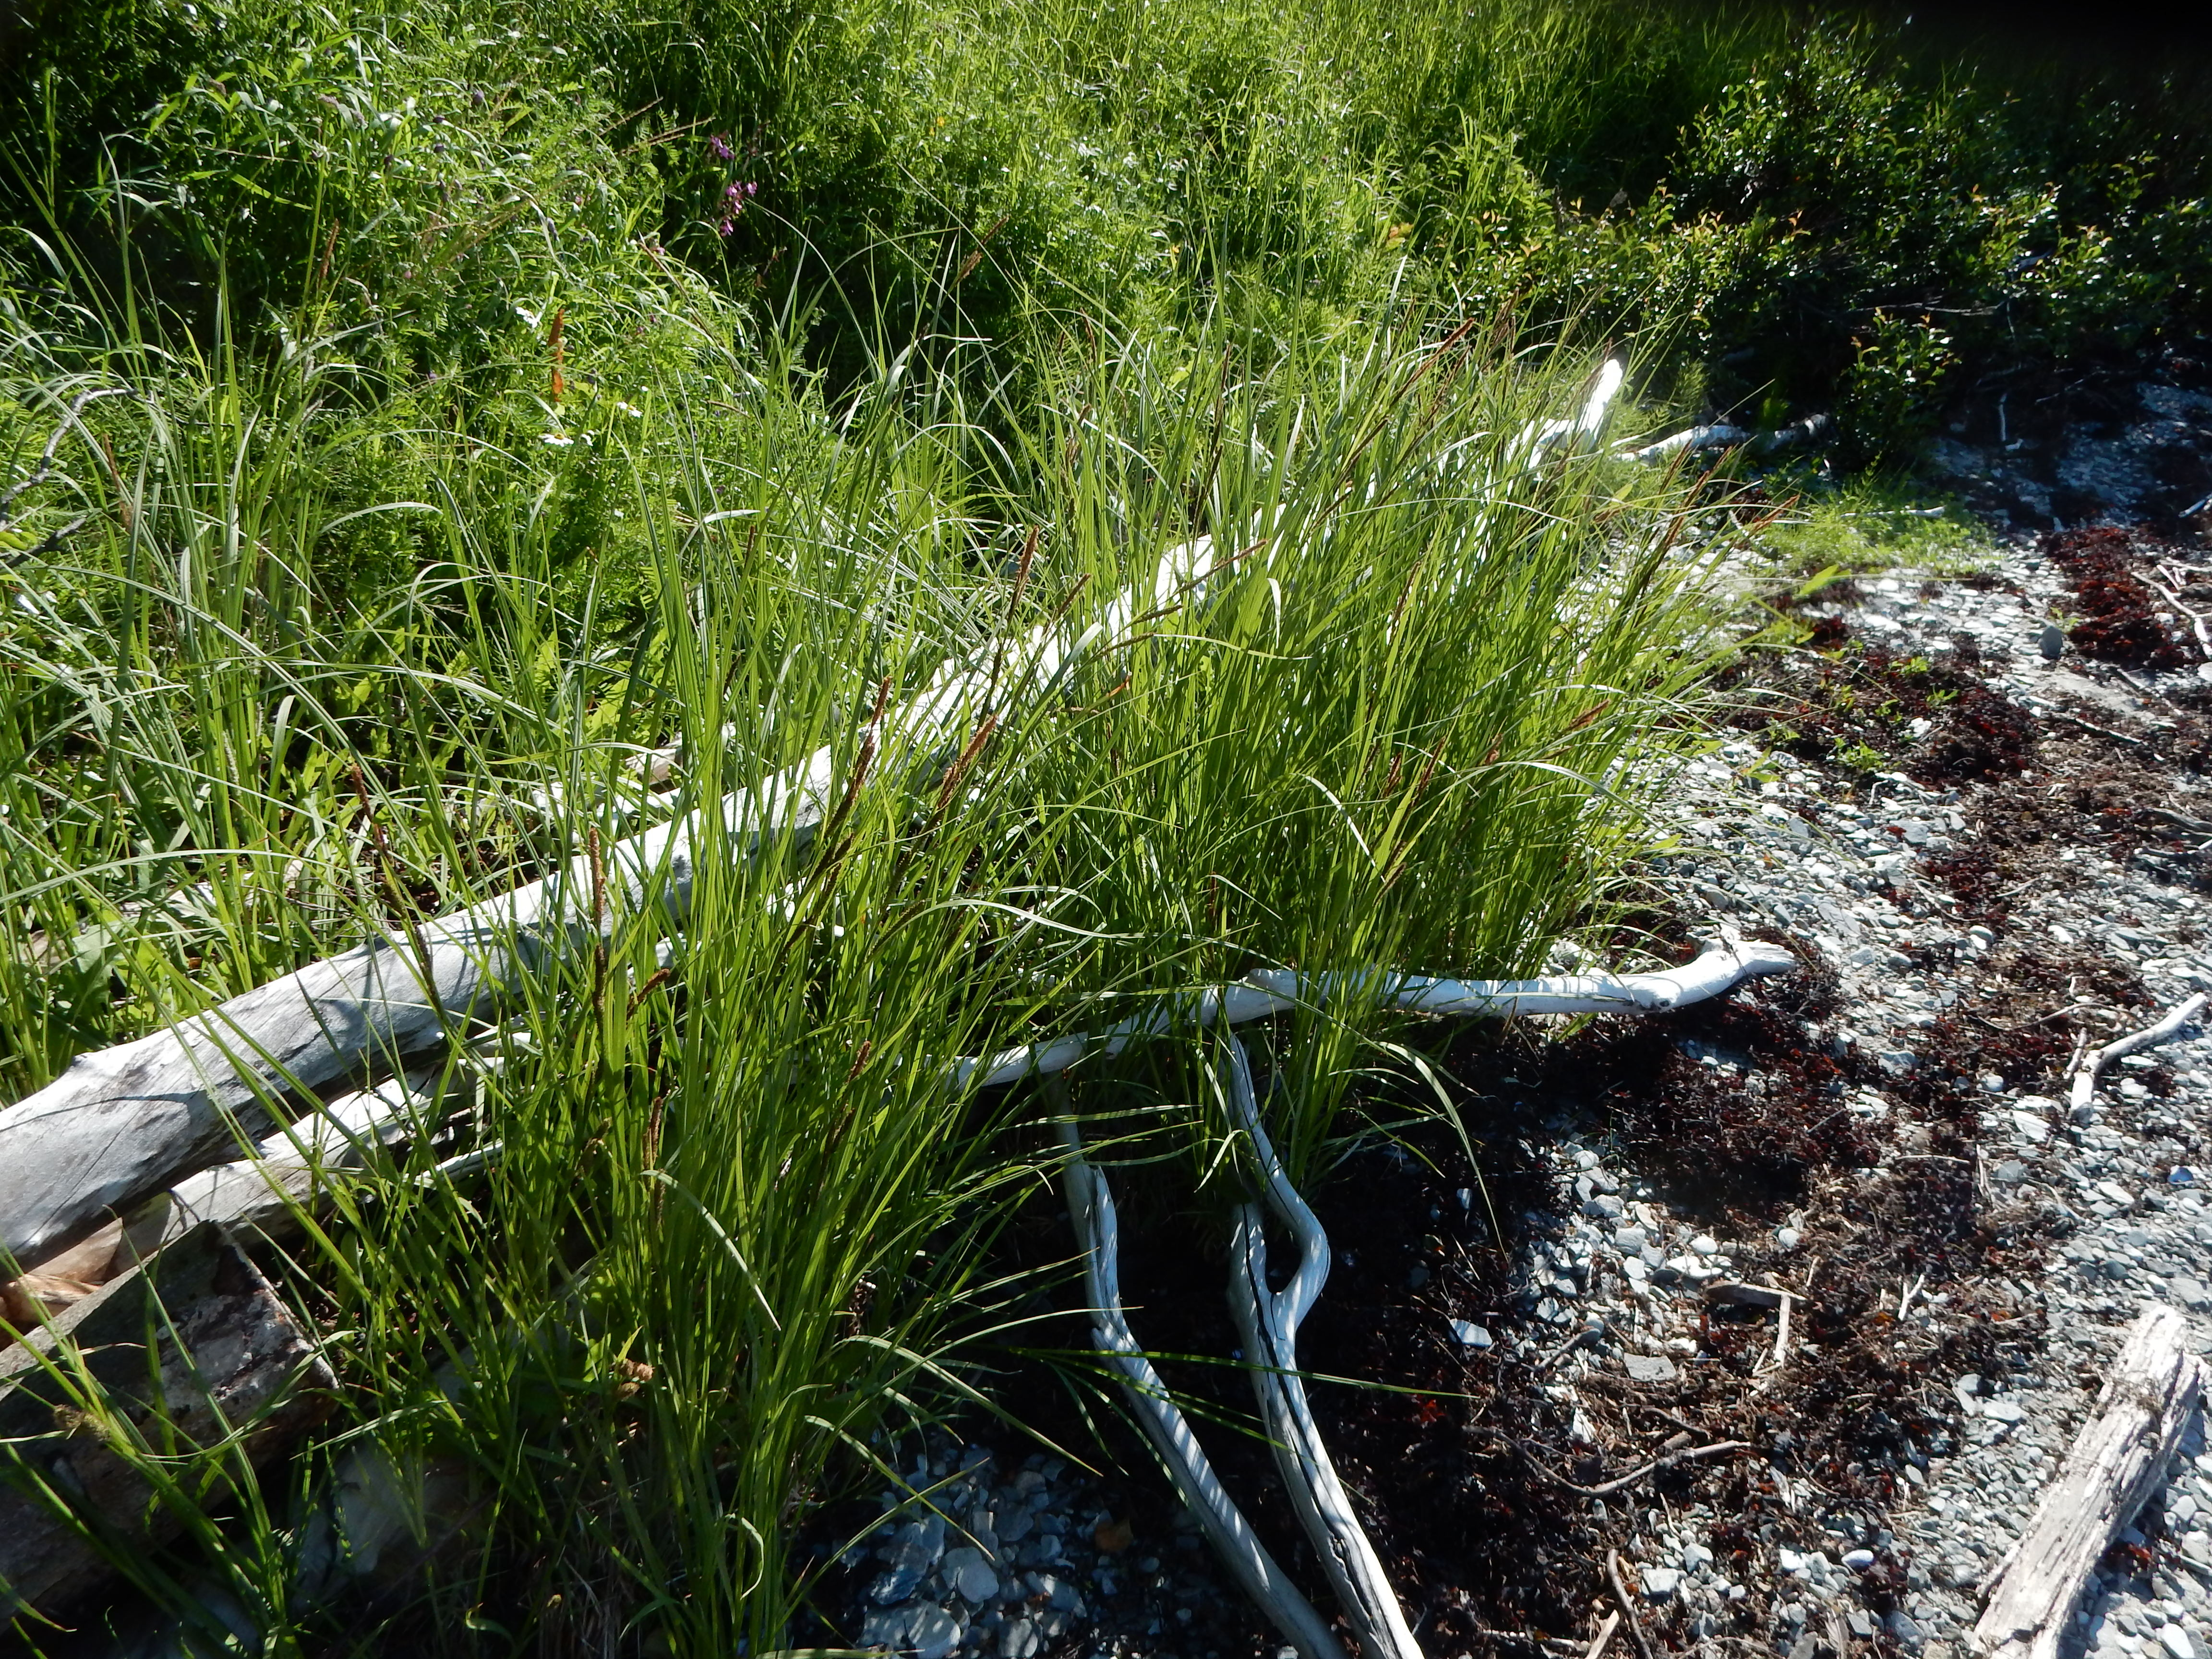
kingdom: Plantae
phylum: Tracheophyta
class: Liliopsida
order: Poales
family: Cyperaceae
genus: Carex
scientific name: Carex halophila
